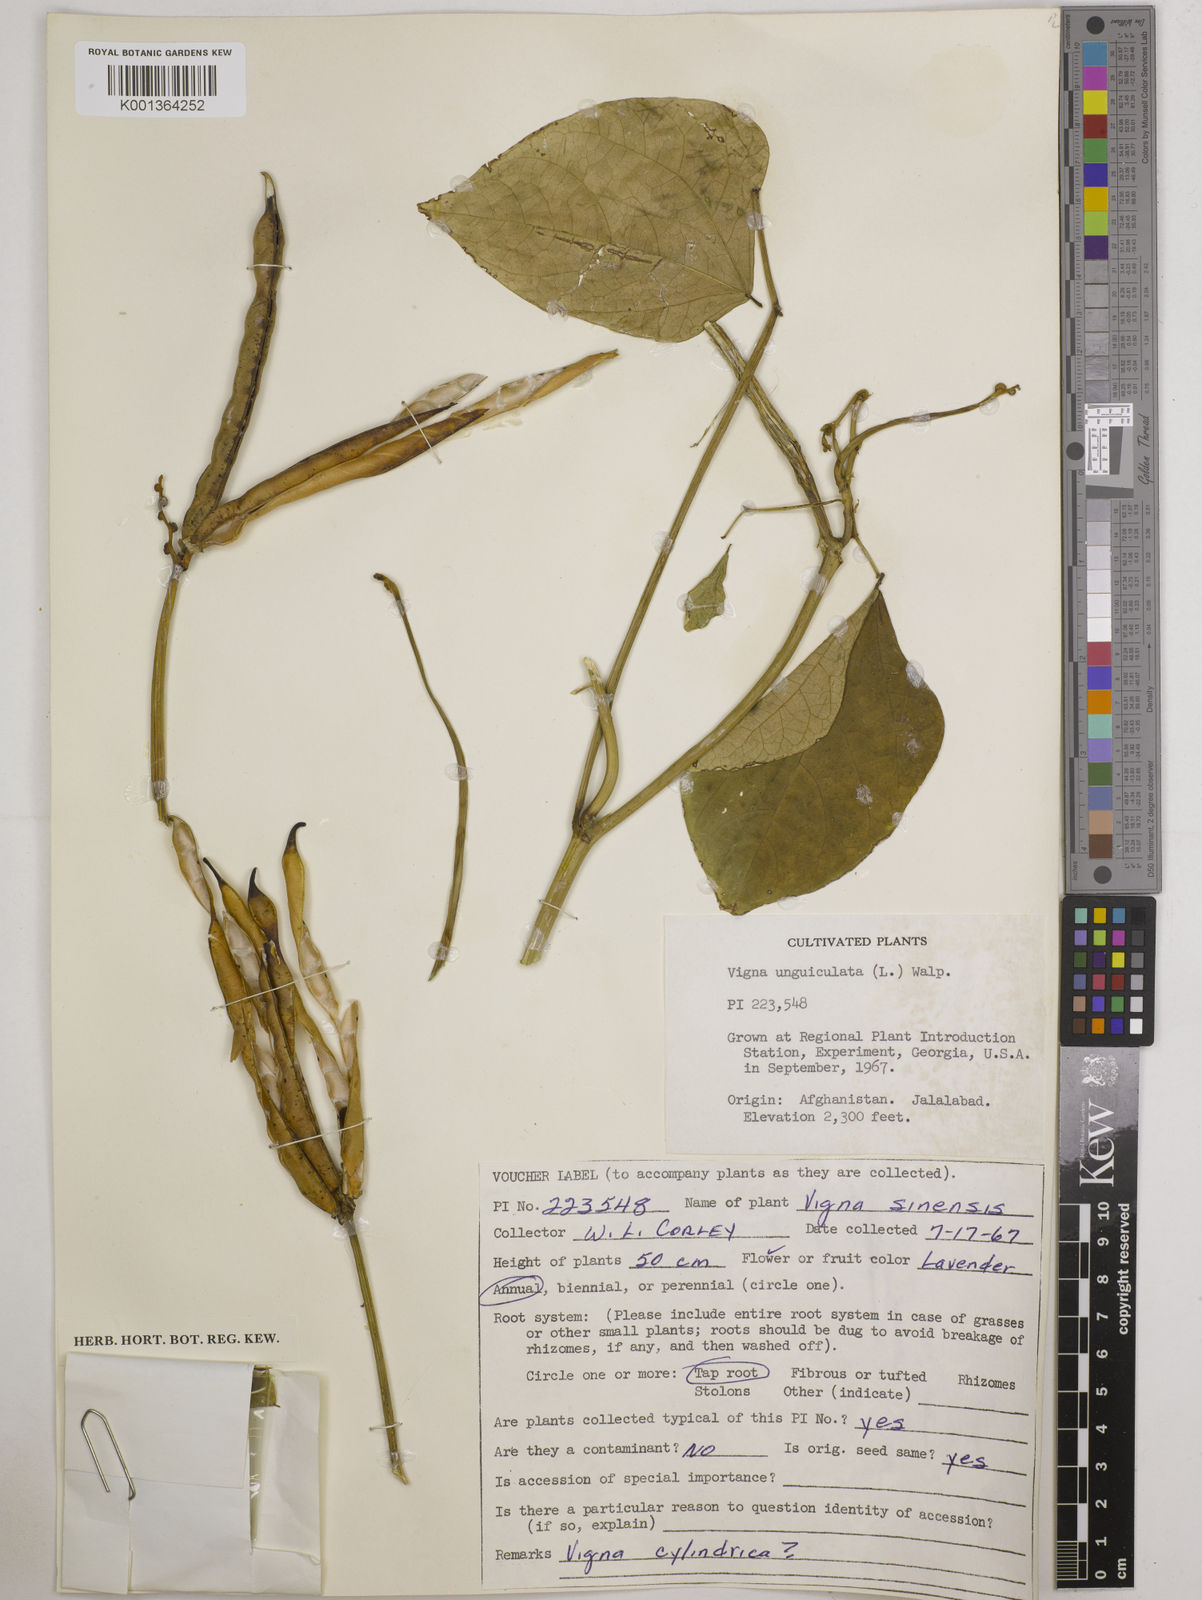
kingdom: Plantae
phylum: Tracheophyta
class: Magnoliopsida
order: Fabales
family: Fabaceae
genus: Vigna
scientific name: Vigna
